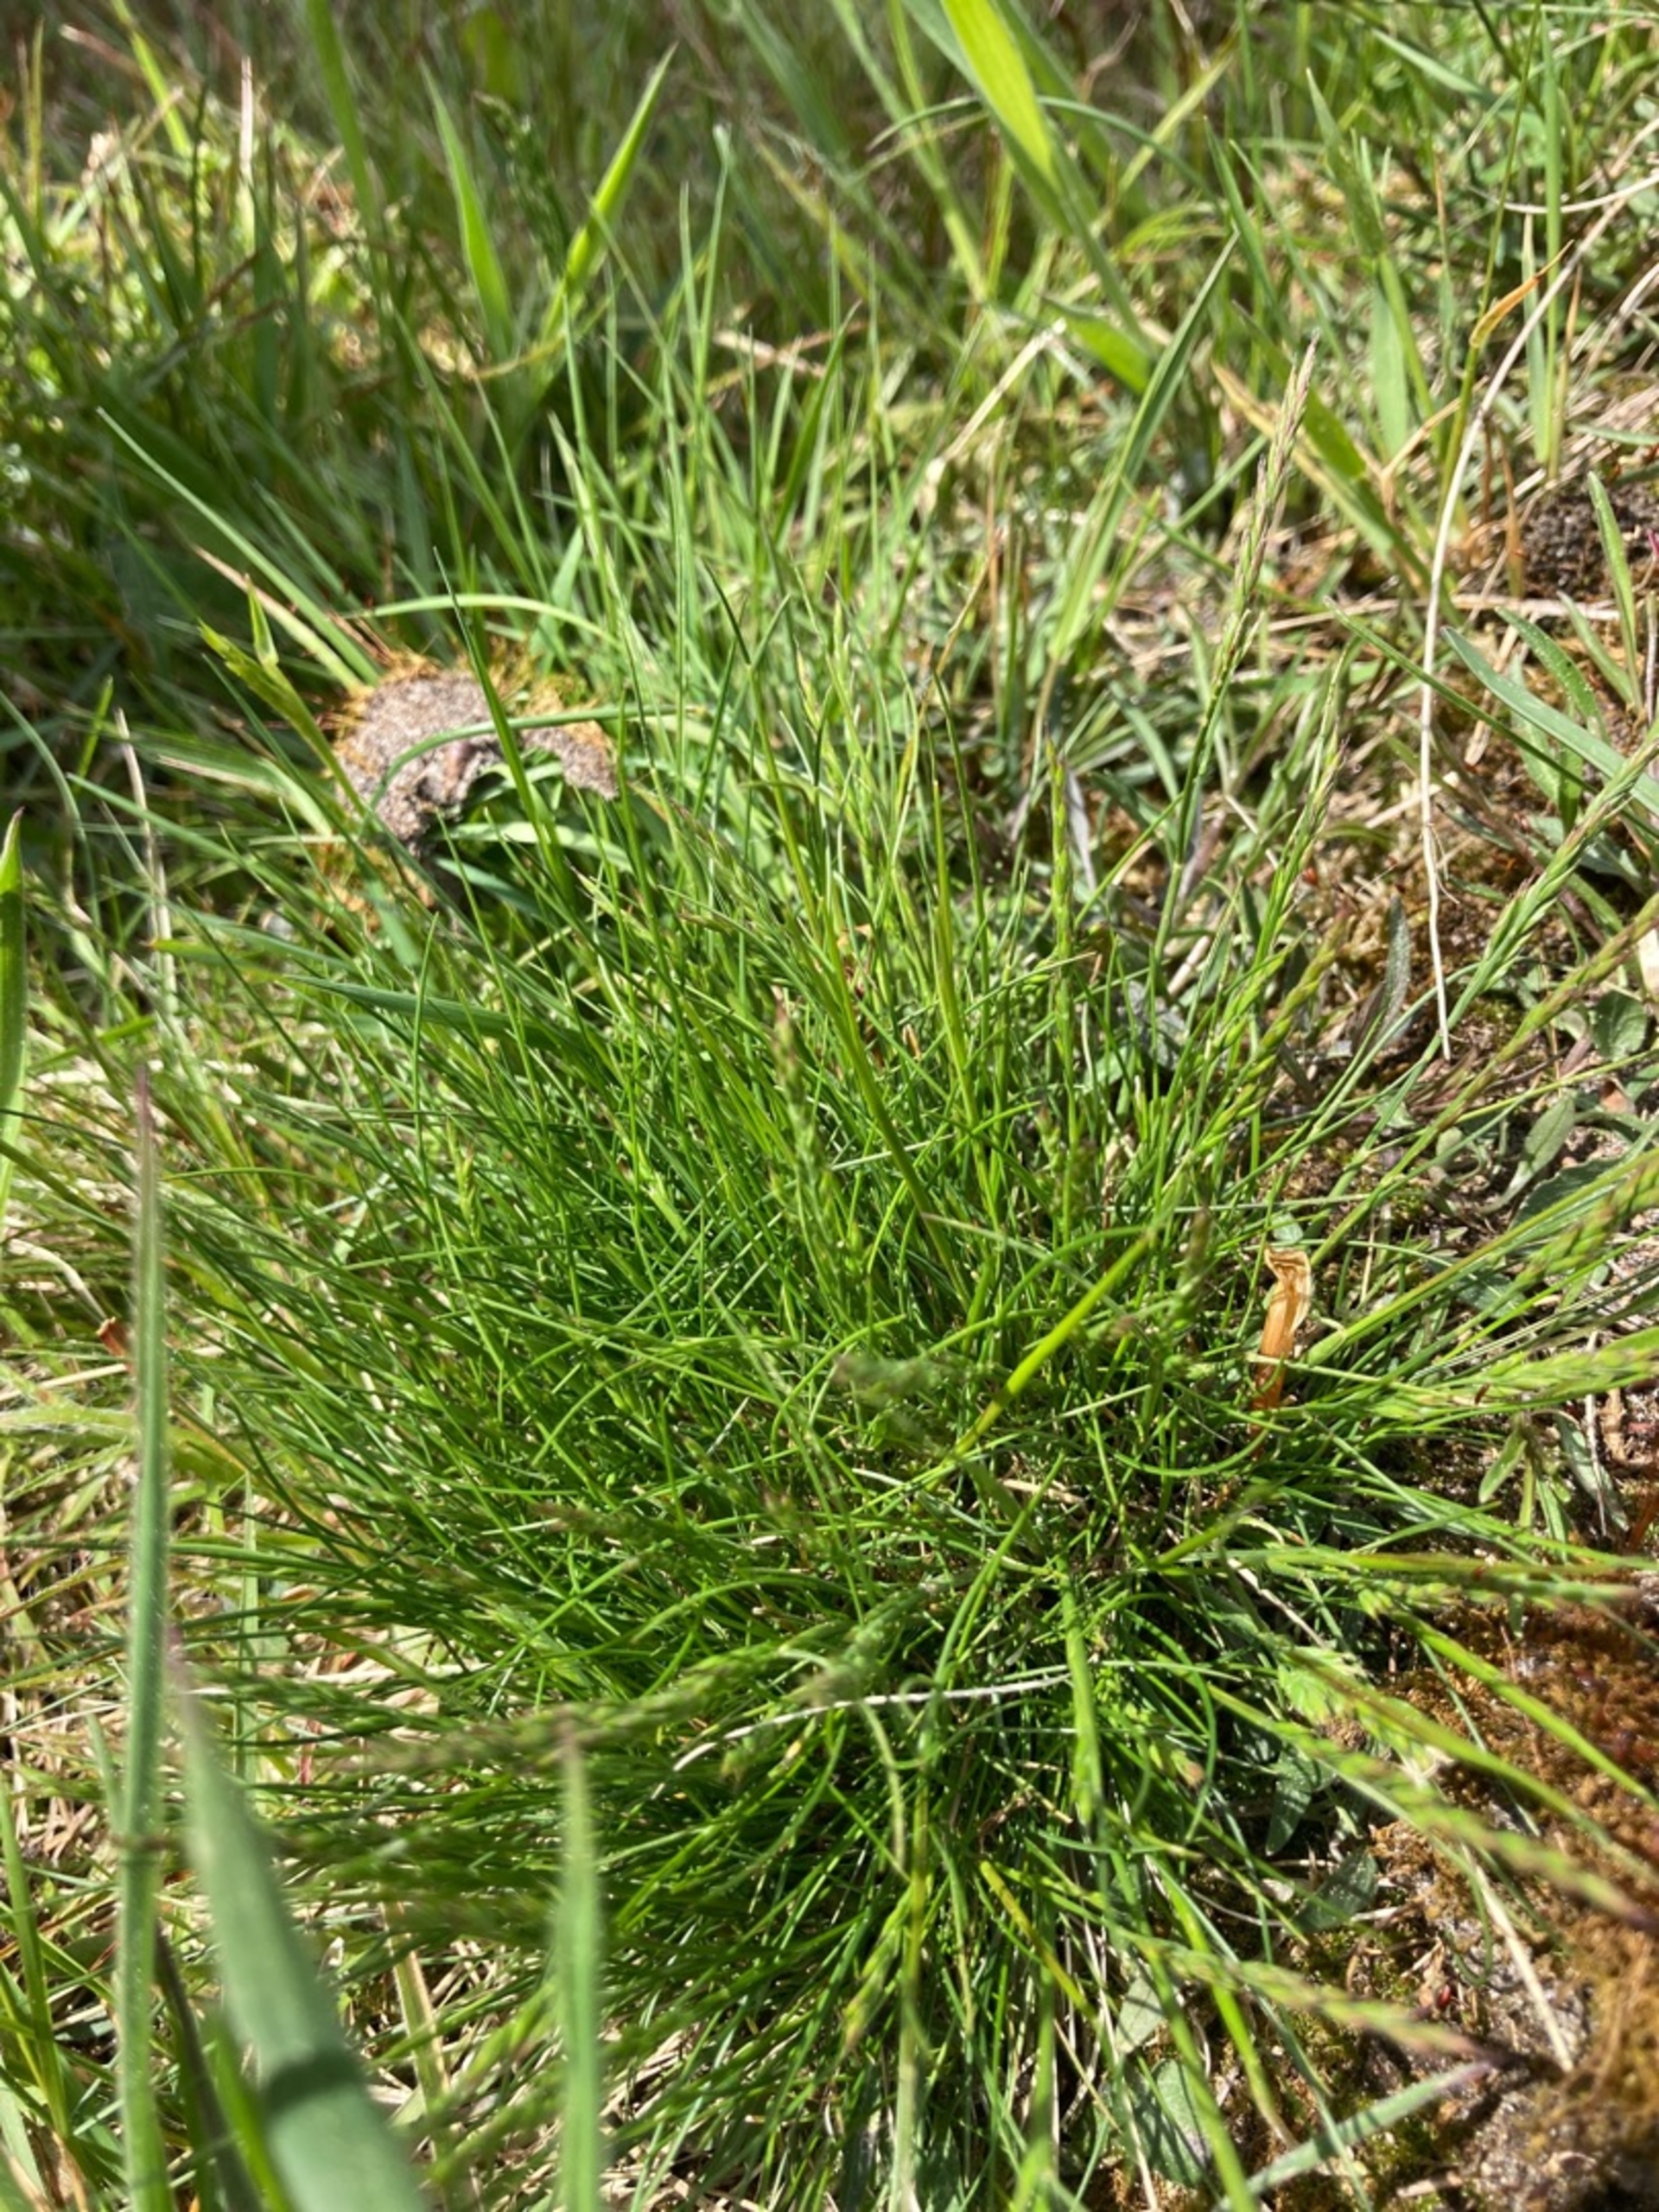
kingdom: Plantae
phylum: Tracheophyta
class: Liliopsida
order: Poales
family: Poaceae
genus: Festuca
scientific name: Festuca ovina
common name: Fåre-svingel
